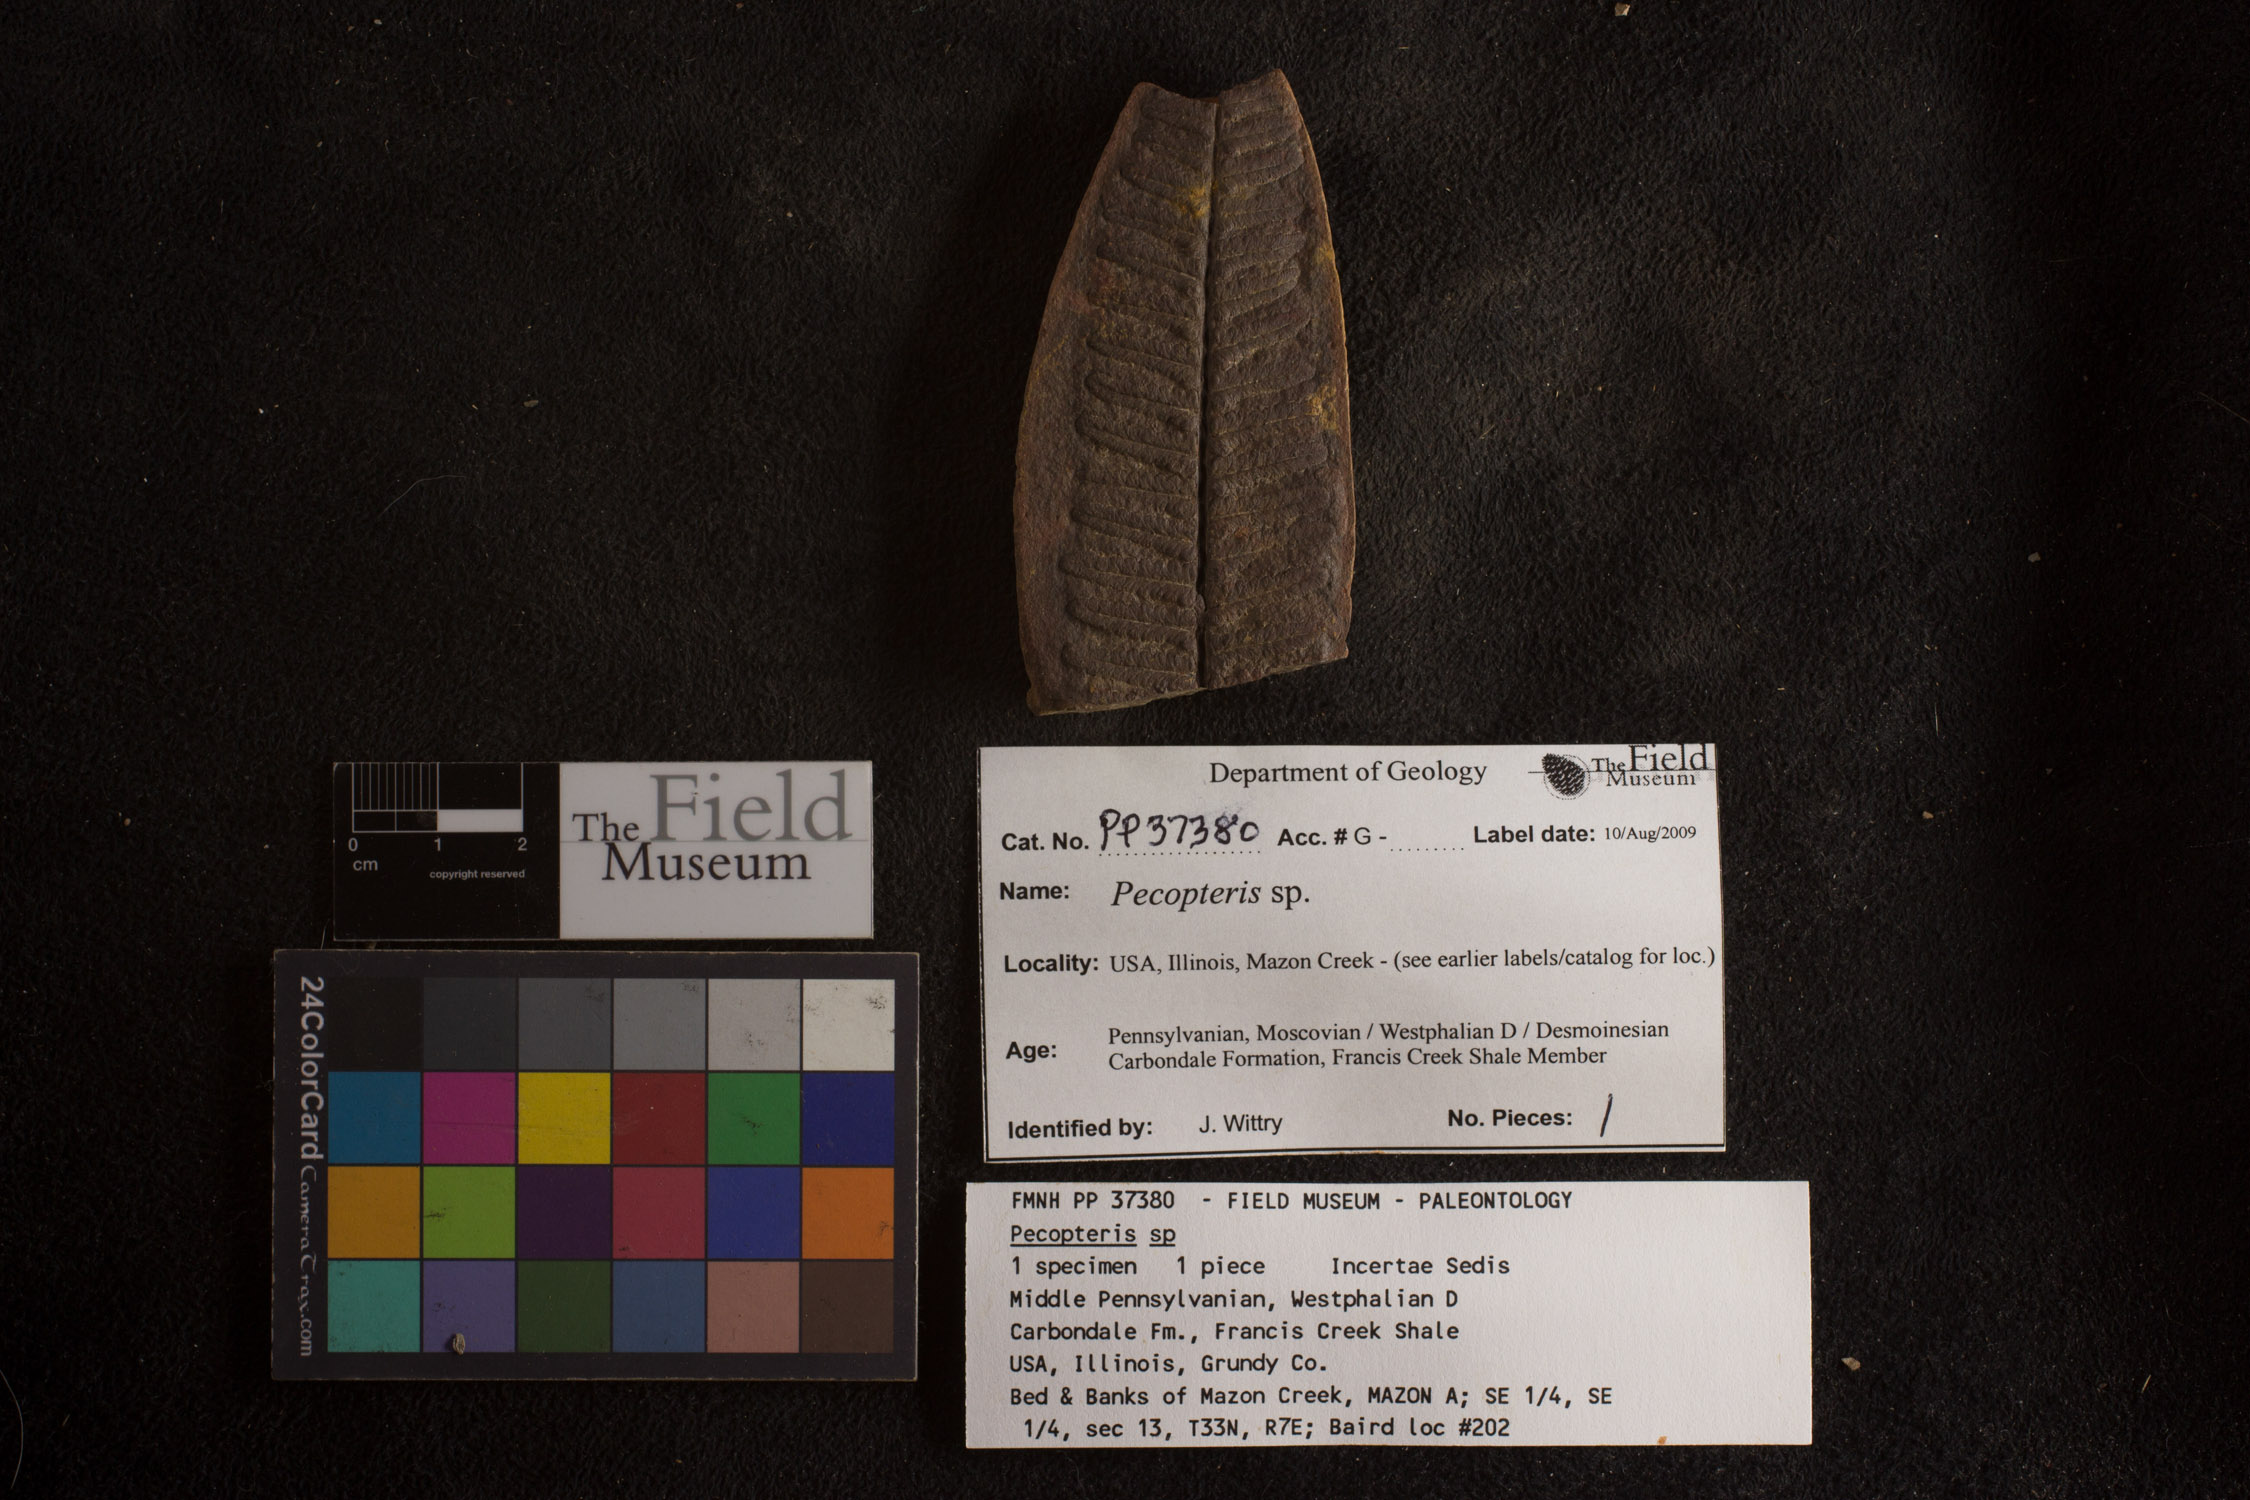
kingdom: Plantae
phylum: Tracheophyta
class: Polypodiopsida
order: Marattiales
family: Asterothecaceae
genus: Pecopteris
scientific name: Pecopteris
